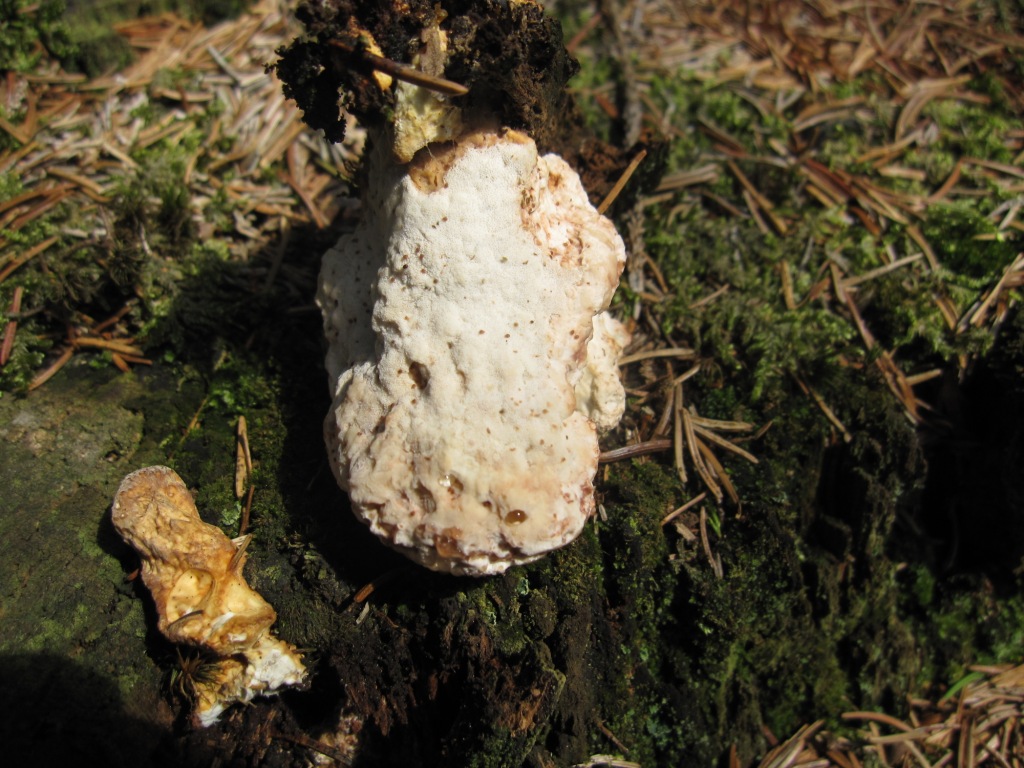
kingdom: Fungi
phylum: Basidiomycota
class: Agaricomycetes
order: Polyporales
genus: Calcipostia
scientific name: Calcipostia guttulata
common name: dråbe-kødporesvamp
